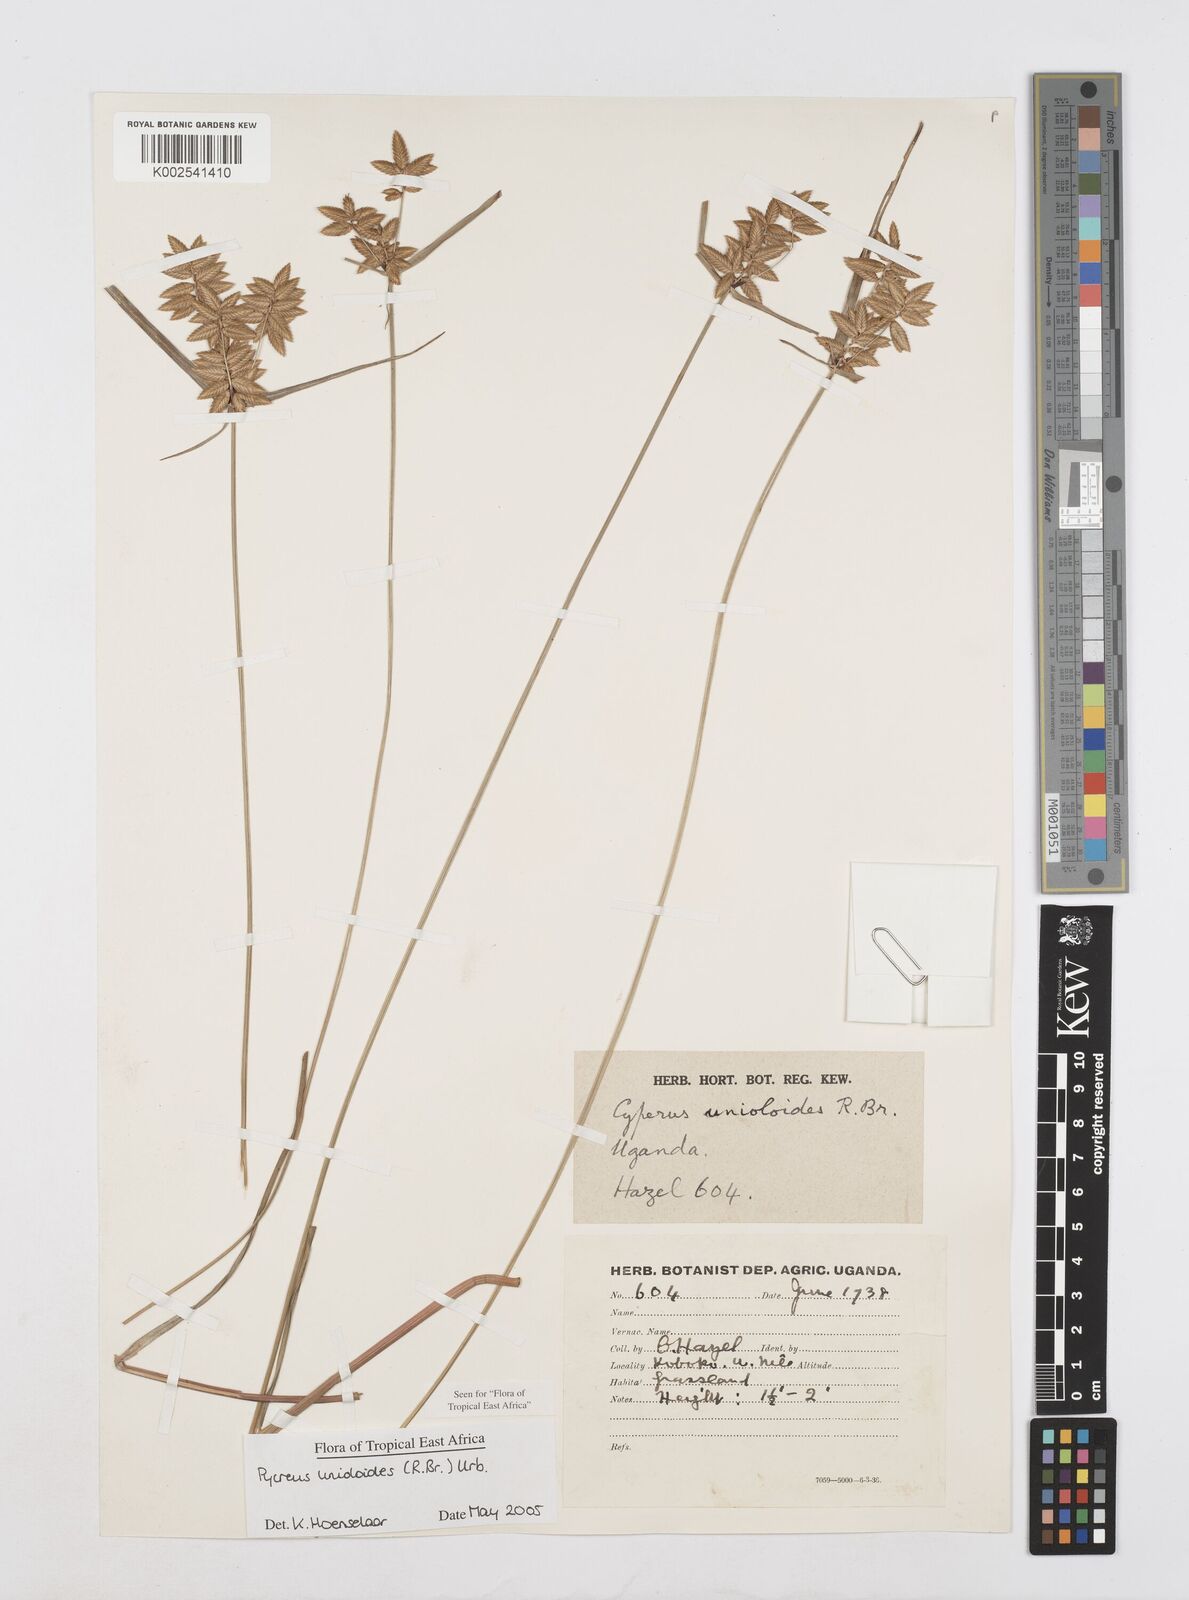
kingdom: Plantae
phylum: Tracheophyta
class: Liliopsida
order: Poales
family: Cyperaceae
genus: Cyperus
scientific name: Cyperus unioloides
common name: Uniola flatsedge
